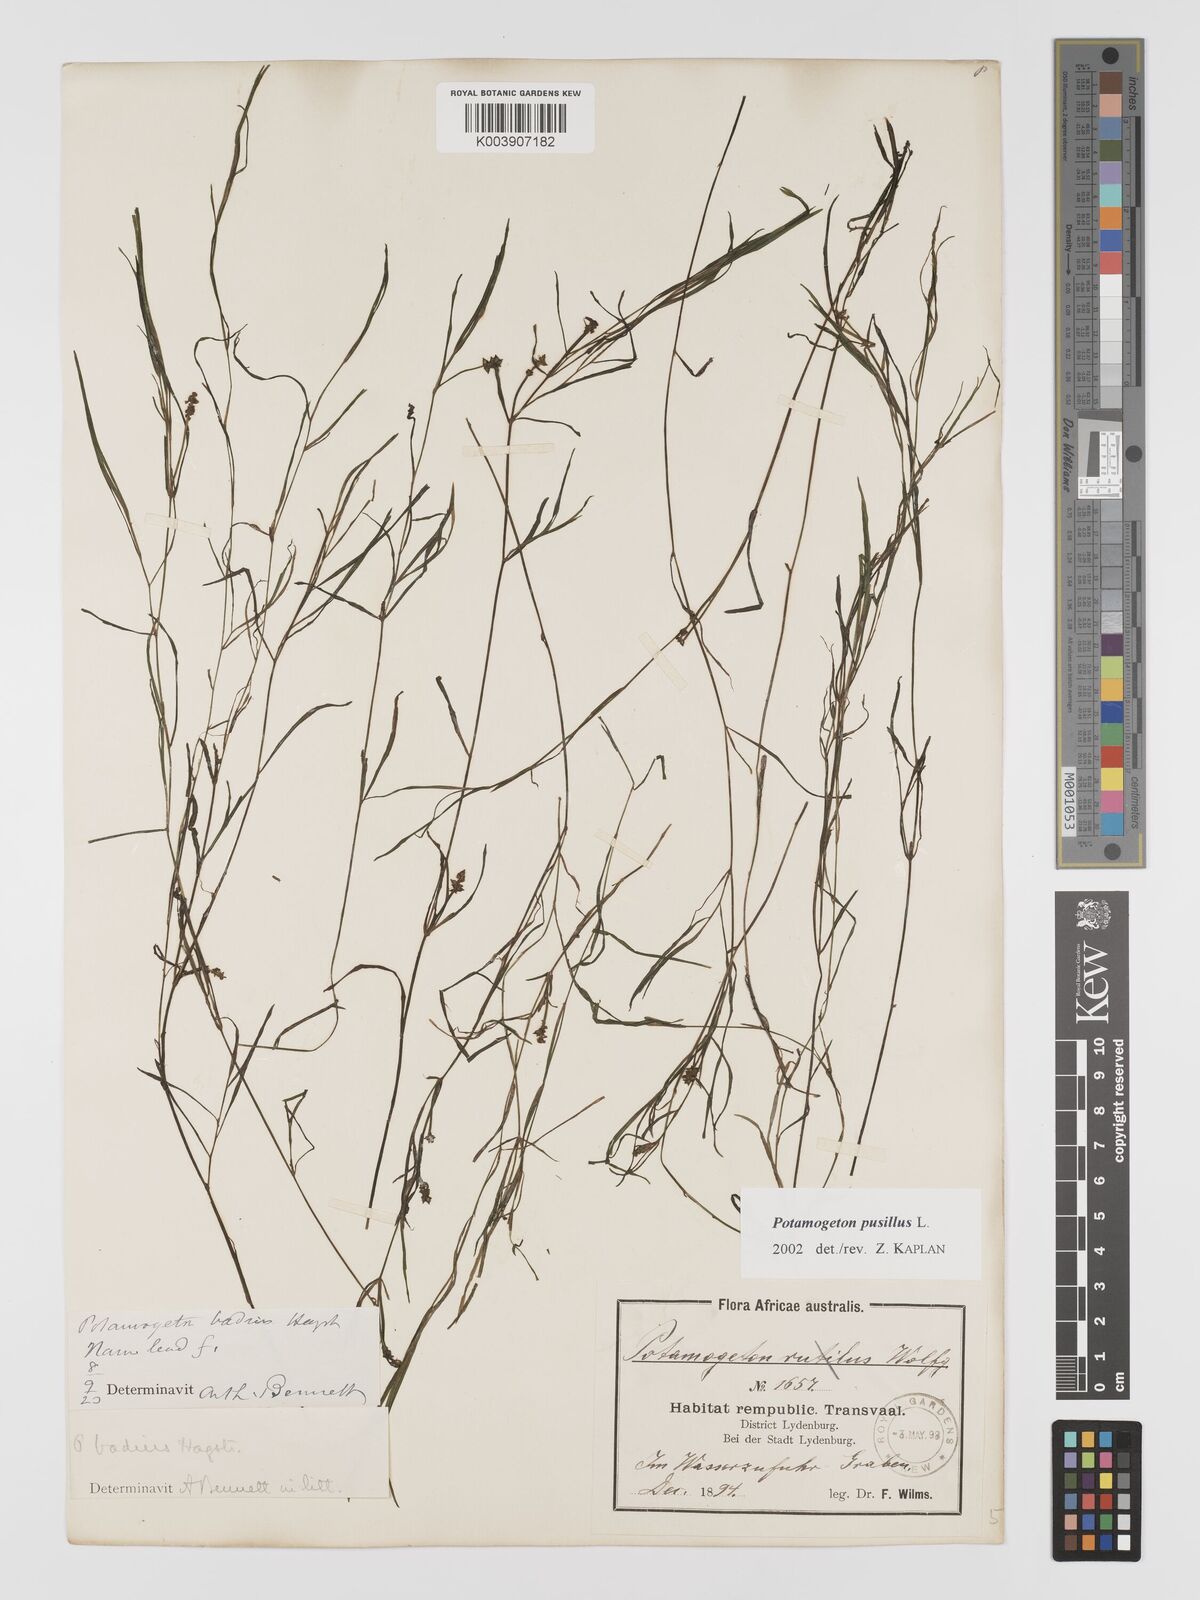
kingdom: Plantae
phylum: Tracheophyta
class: Liliopsida
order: Alismatales
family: Potamogetonaceae
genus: Potamogeton
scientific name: Potamogeton pusillus
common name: Lesser pondweed
